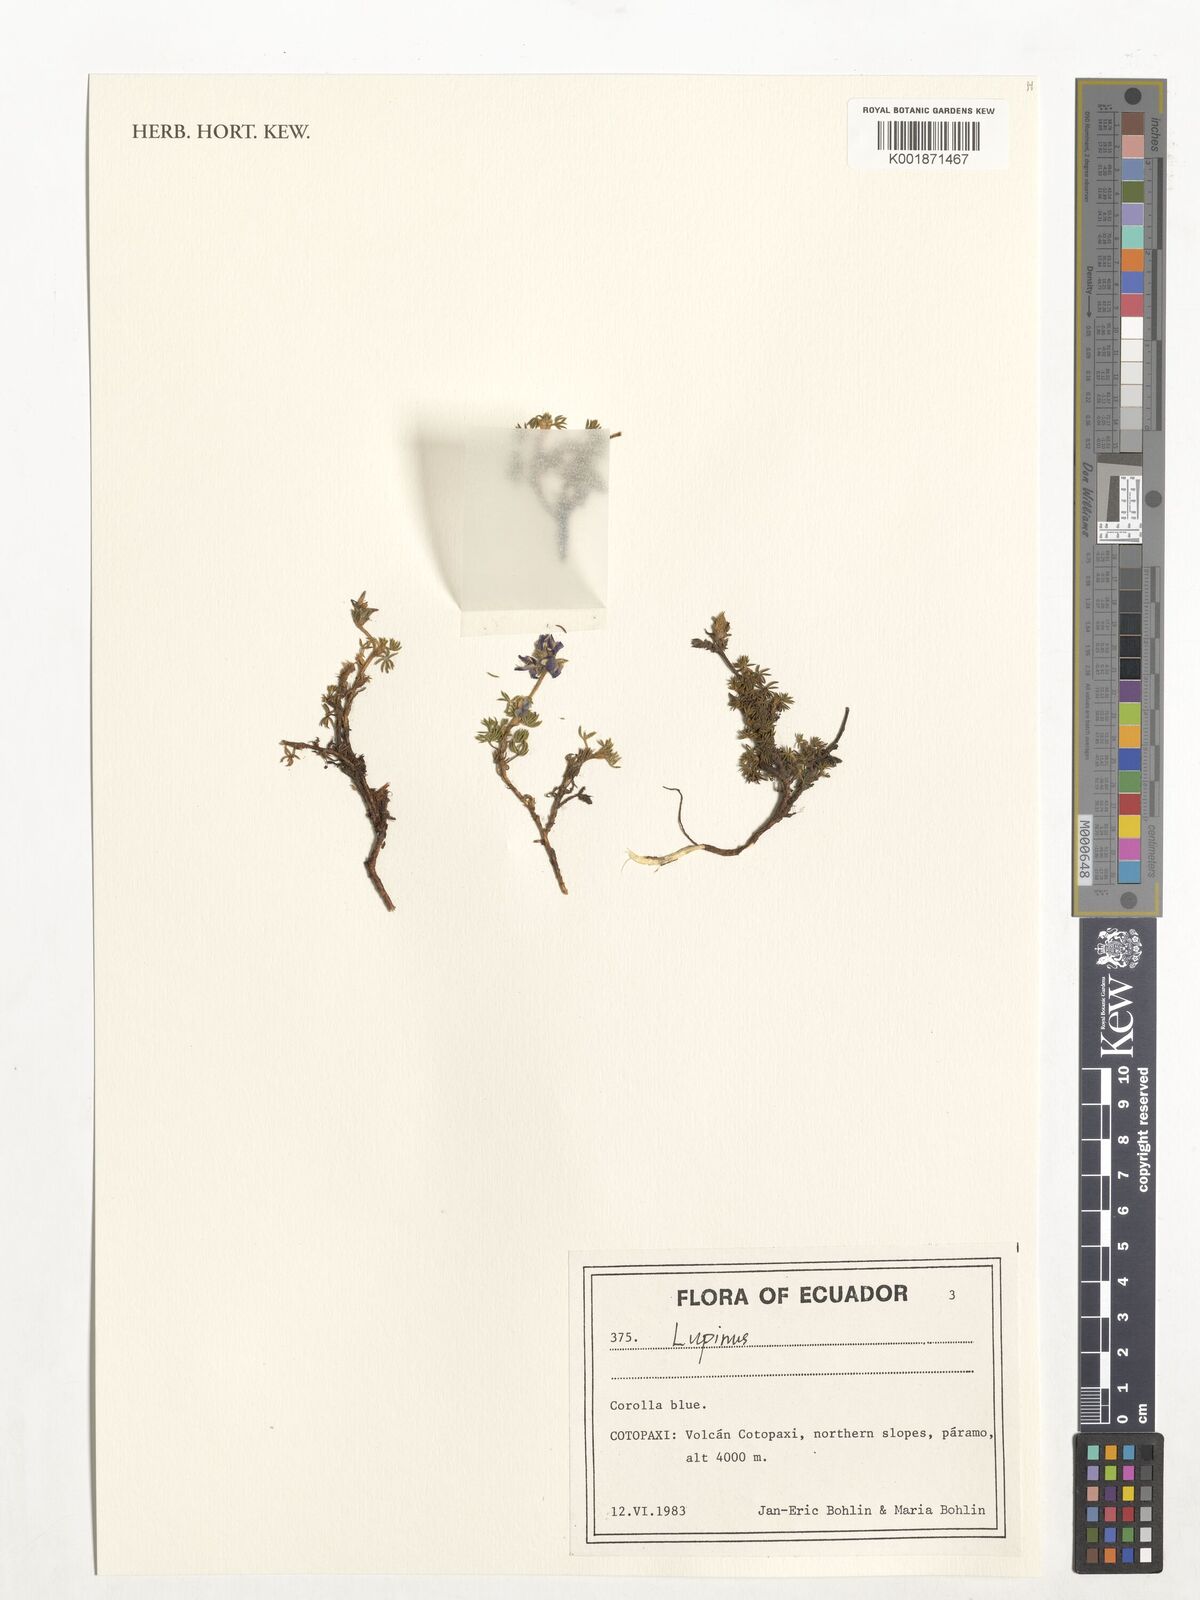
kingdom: Plantae
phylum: Tracheophyta
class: Magnoliopsida
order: Fabales
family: Fabaceae
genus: Lupinus
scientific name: Lupinus
